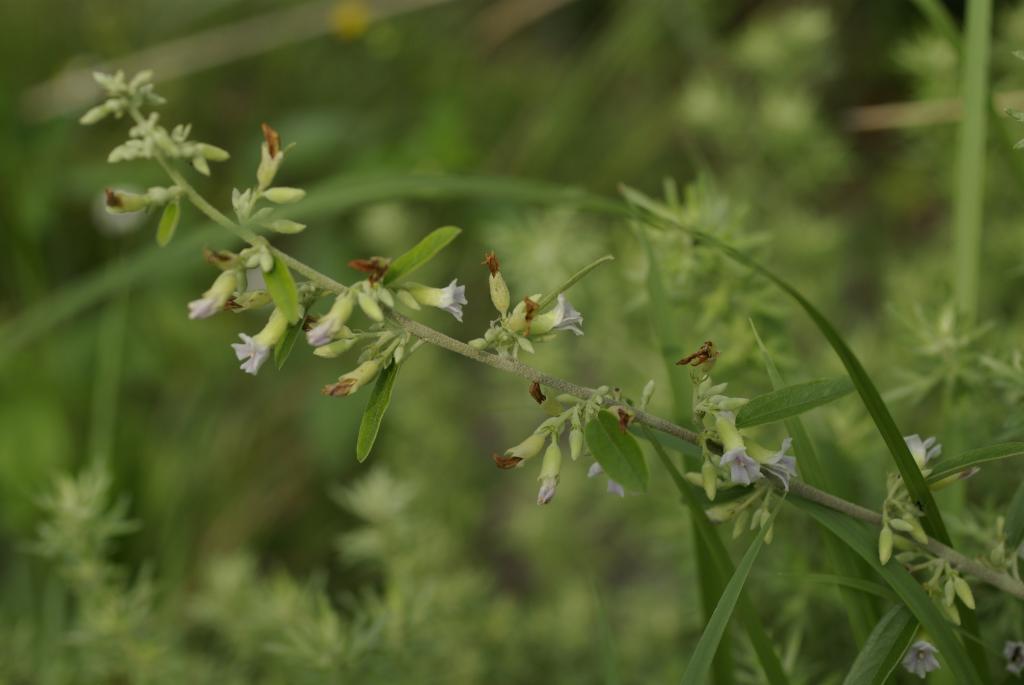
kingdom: Plantae
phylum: Tracheophyta
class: Magnoliopsida
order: Malvales
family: Malvaceae
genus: Helicteres
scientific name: Helicteres augustifolia
